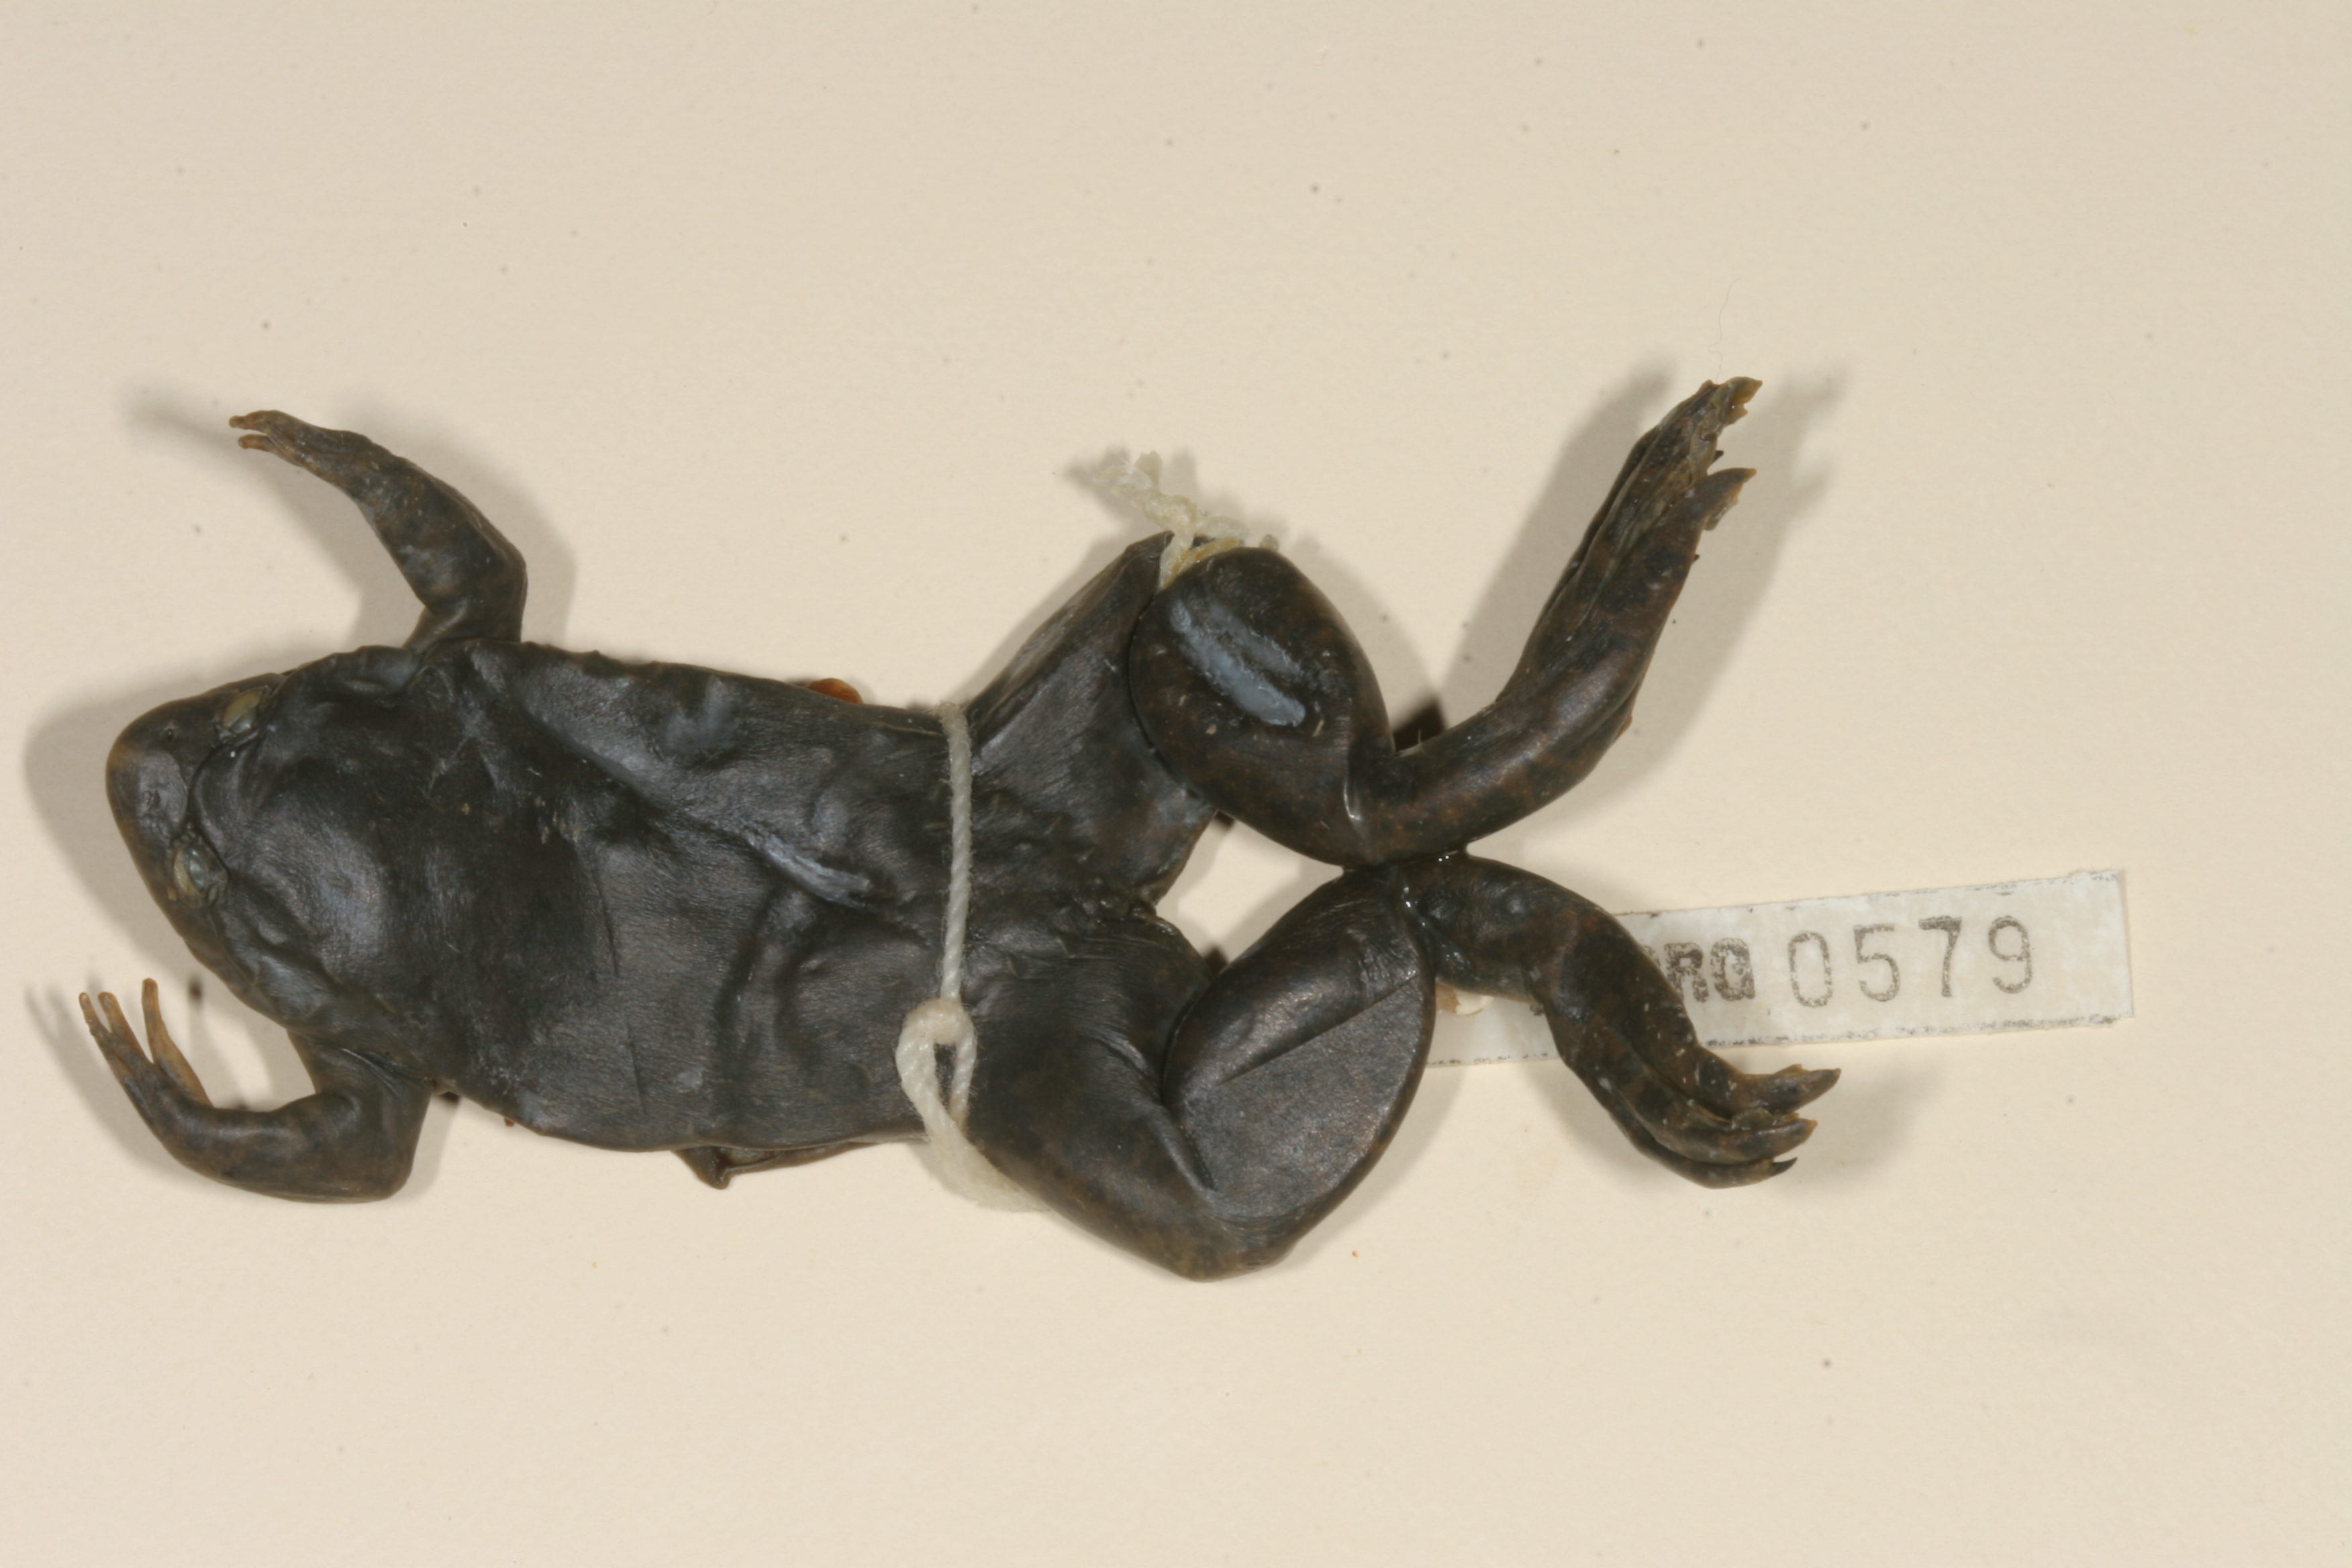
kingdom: Animalia
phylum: Chordata
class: Amphibia
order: Anura
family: Bufonidae
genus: Sclerophrys
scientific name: Sclerophrys gutturalis
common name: African common toad
